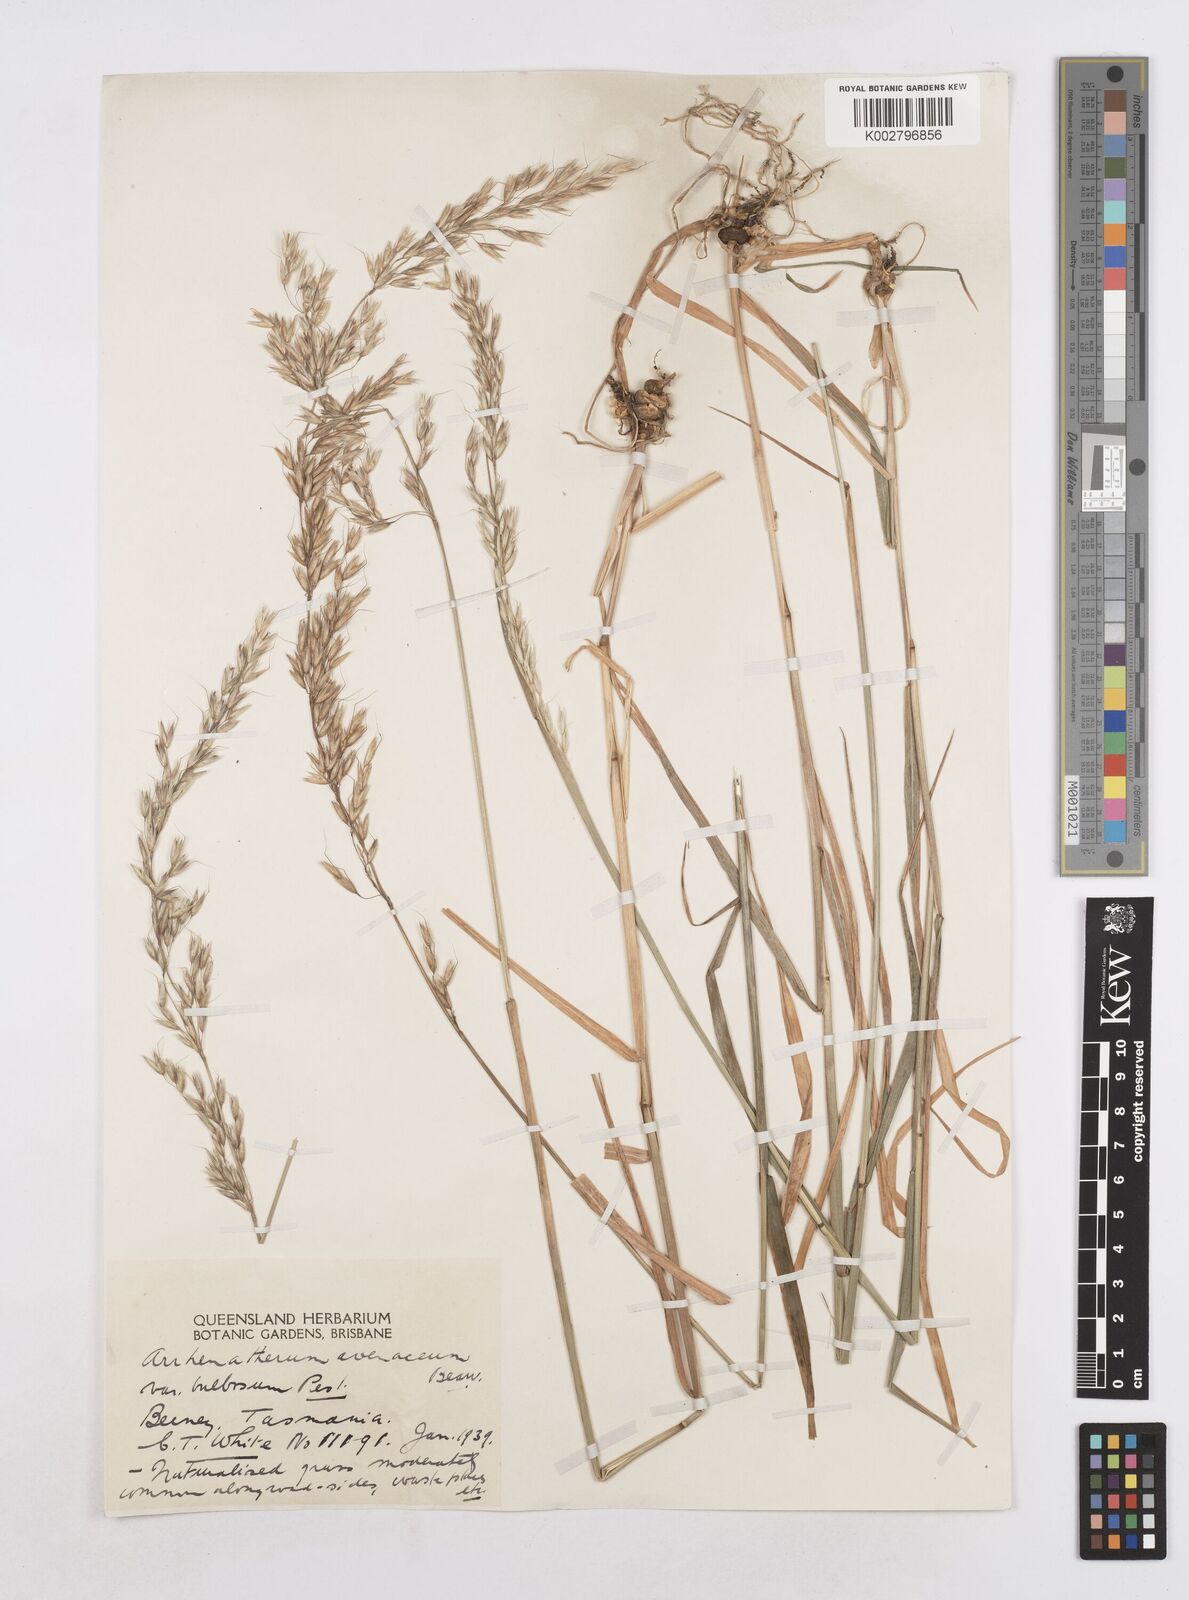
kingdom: Plantae
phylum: Tracheophyta
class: Liliopsida
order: Poales
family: Poaceae
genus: Arrhenatherum
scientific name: Arrhenatherum elatius
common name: Tall oatgrass
